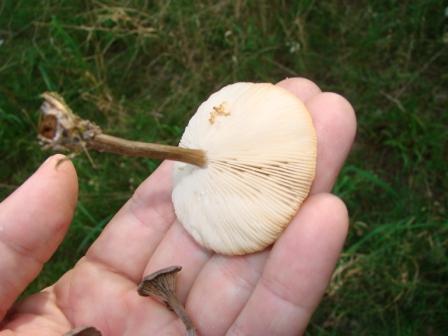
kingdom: Fungi
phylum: Basidiomycota
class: Agaricomycetes
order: Agaricales
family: Tricholomataceae
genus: Melanoleuca
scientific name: Melanoleuca
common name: munkehat
